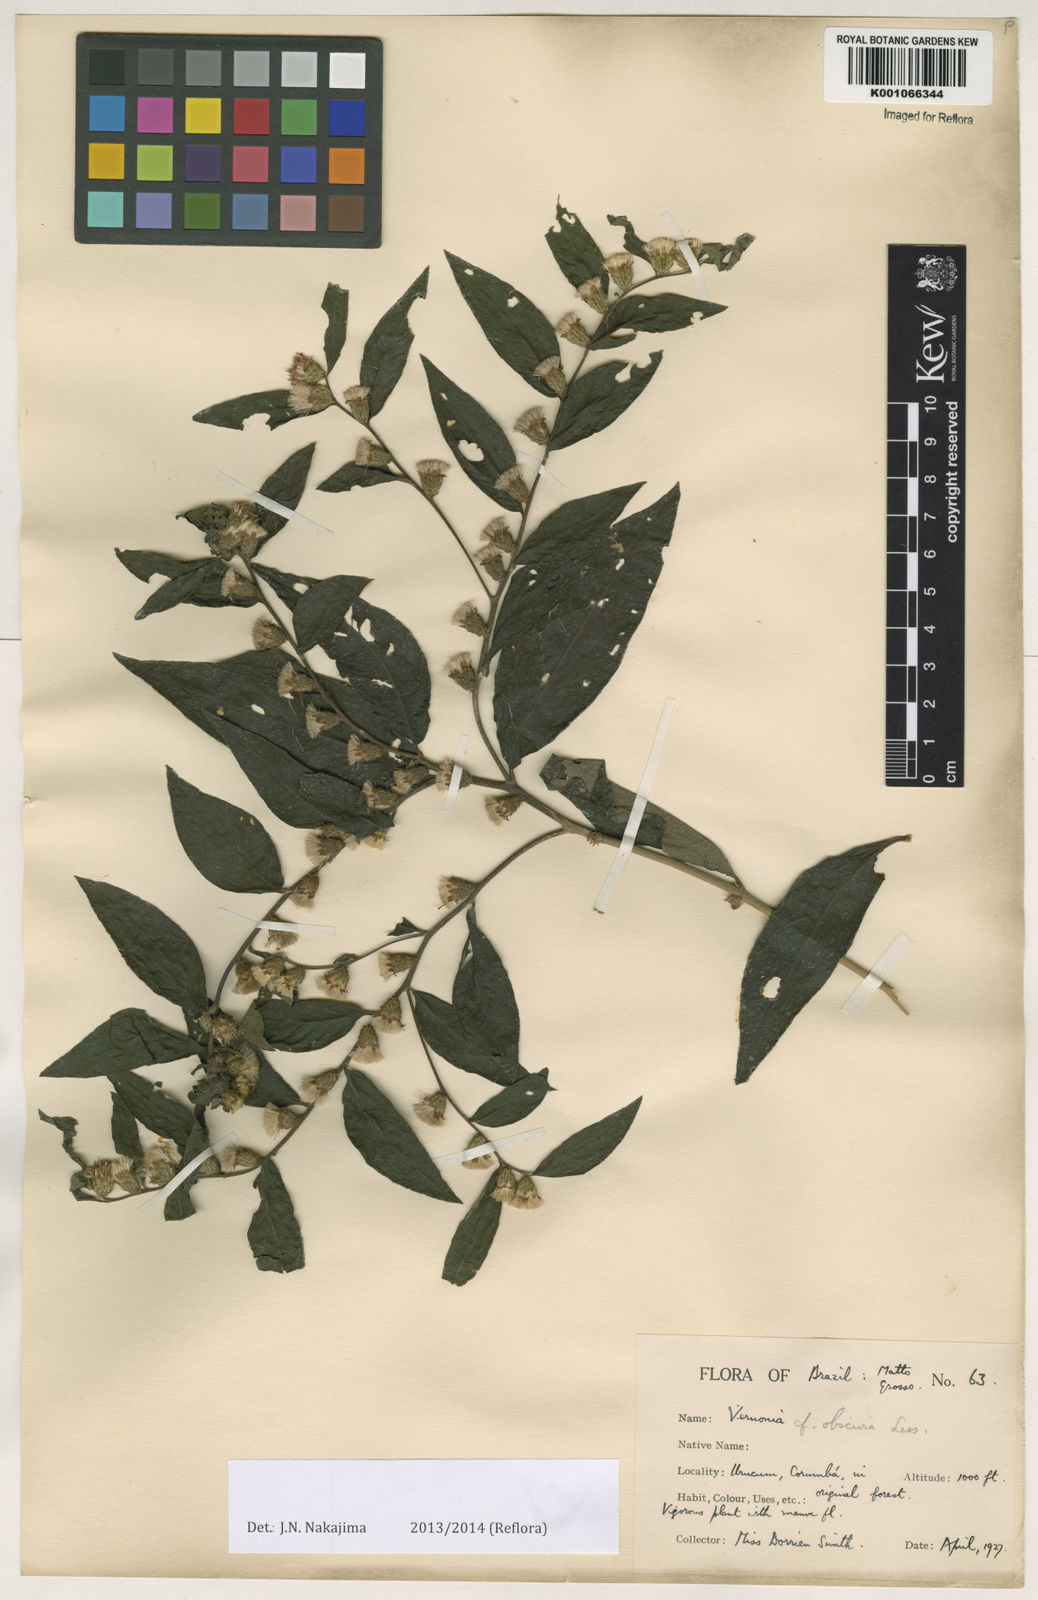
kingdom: Plantae
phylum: Tracheophyta
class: Magnoliopsida
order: Asterales
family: Asteraceae
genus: Vernonia
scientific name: Vernonia subobscura
